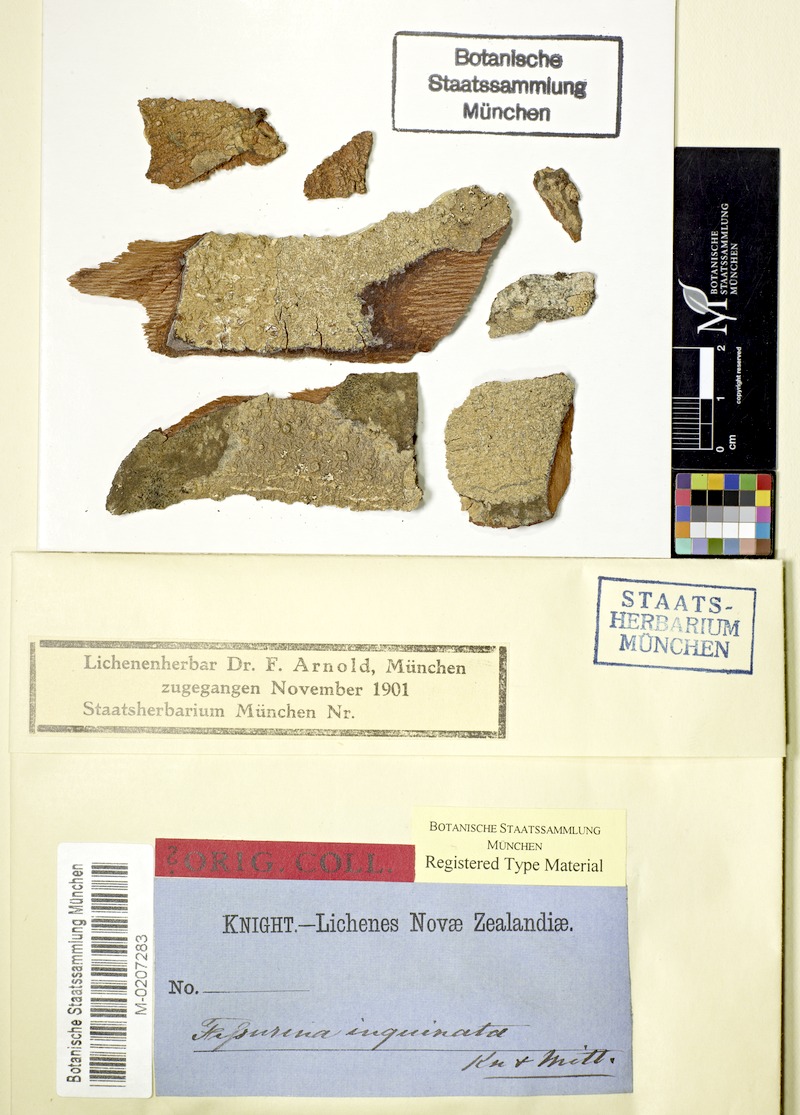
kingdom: Fungi
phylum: Ascomycota
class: Lecanoromycetes
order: Ostropales
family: Graphidaceae
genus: Fissurina
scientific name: Fissurina
